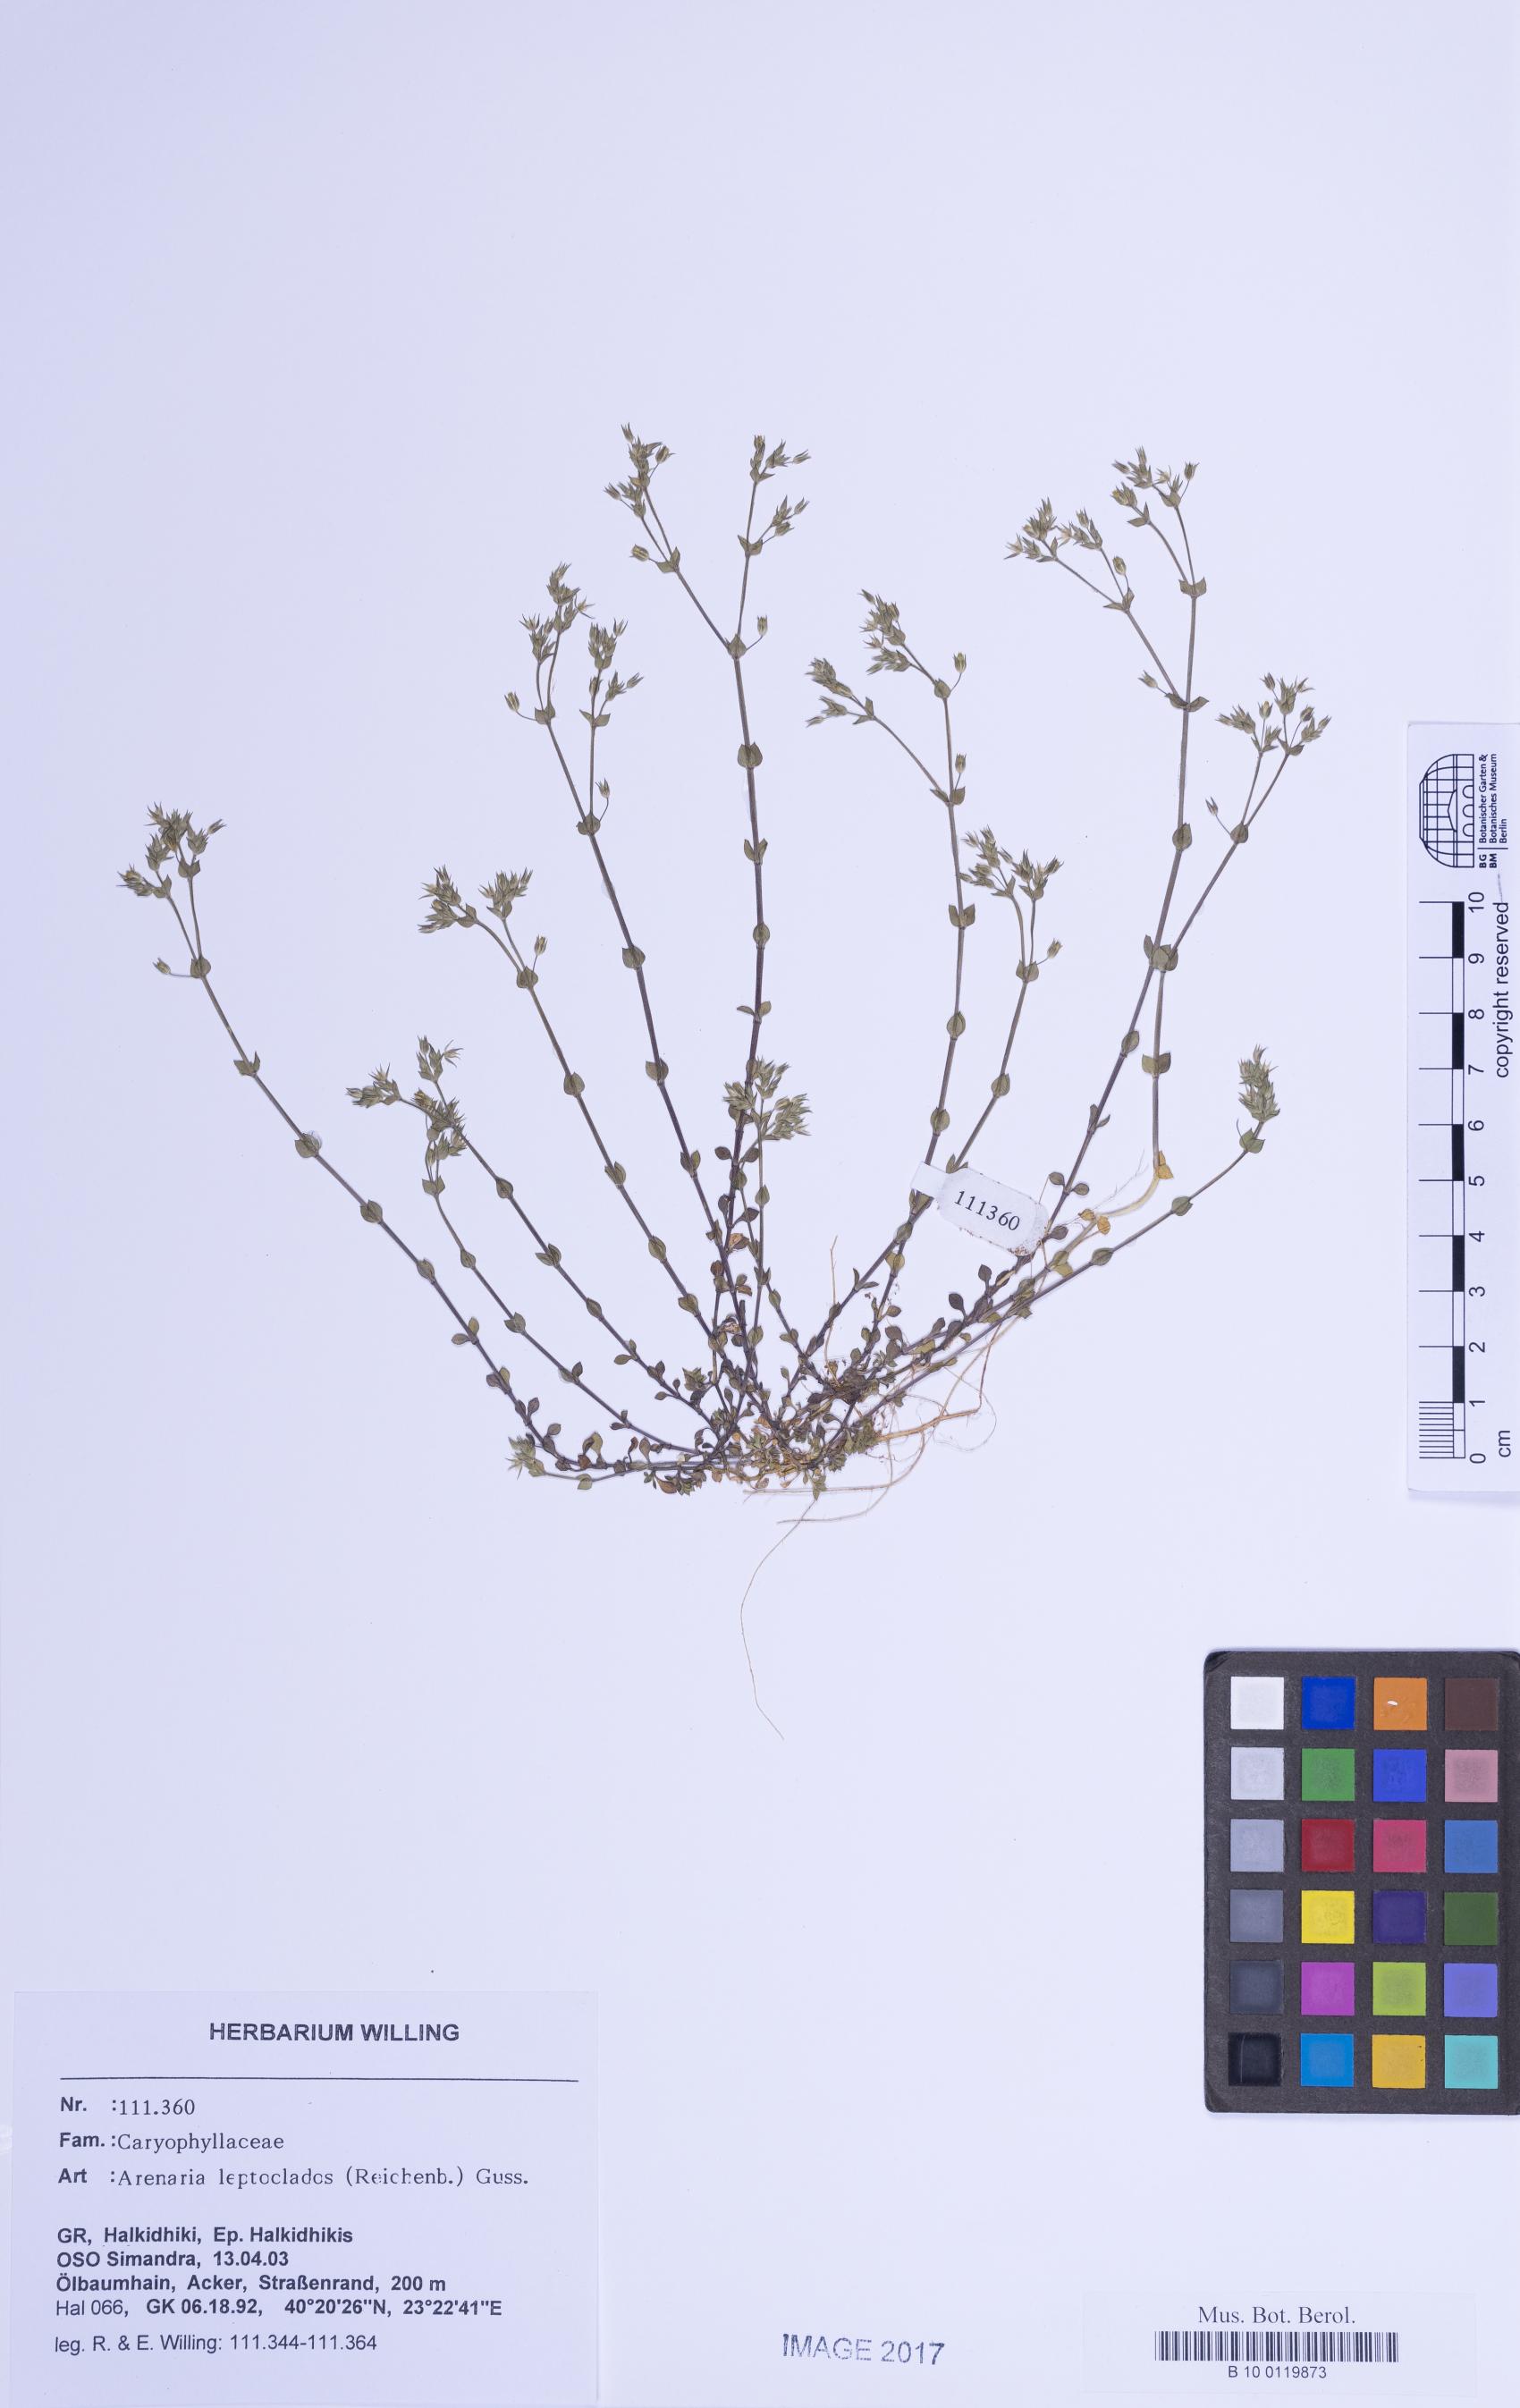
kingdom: Plantae
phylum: Tracheophyta
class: Magnoliopsida
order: Caryophyllales
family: Caryophyllaceae
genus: Arenaria
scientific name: Arenaria leptoclados
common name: Thyme-leaved sandwort
